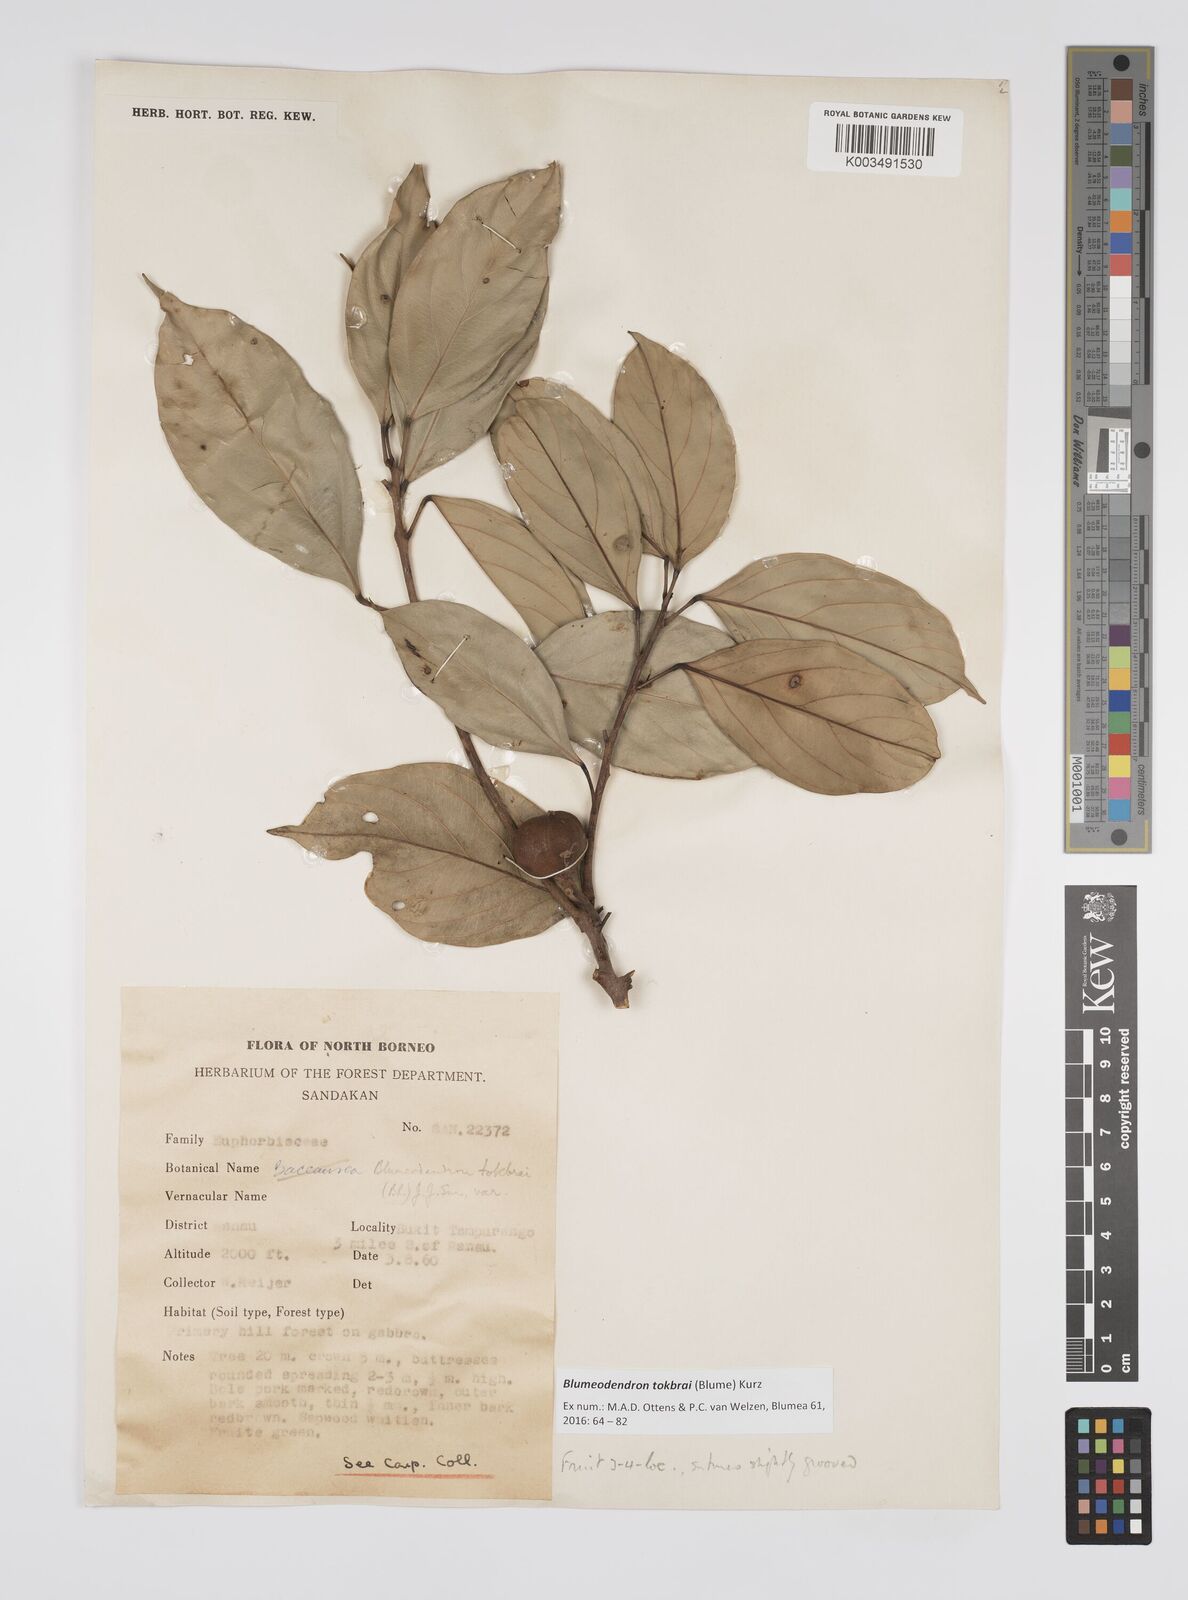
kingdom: Plantae
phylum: Tracheophyta
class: Magnoliopsida
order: Malpighiales
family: Euphorbiaceae
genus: Blumeodendron
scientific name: Blumeodendron tokbrai
